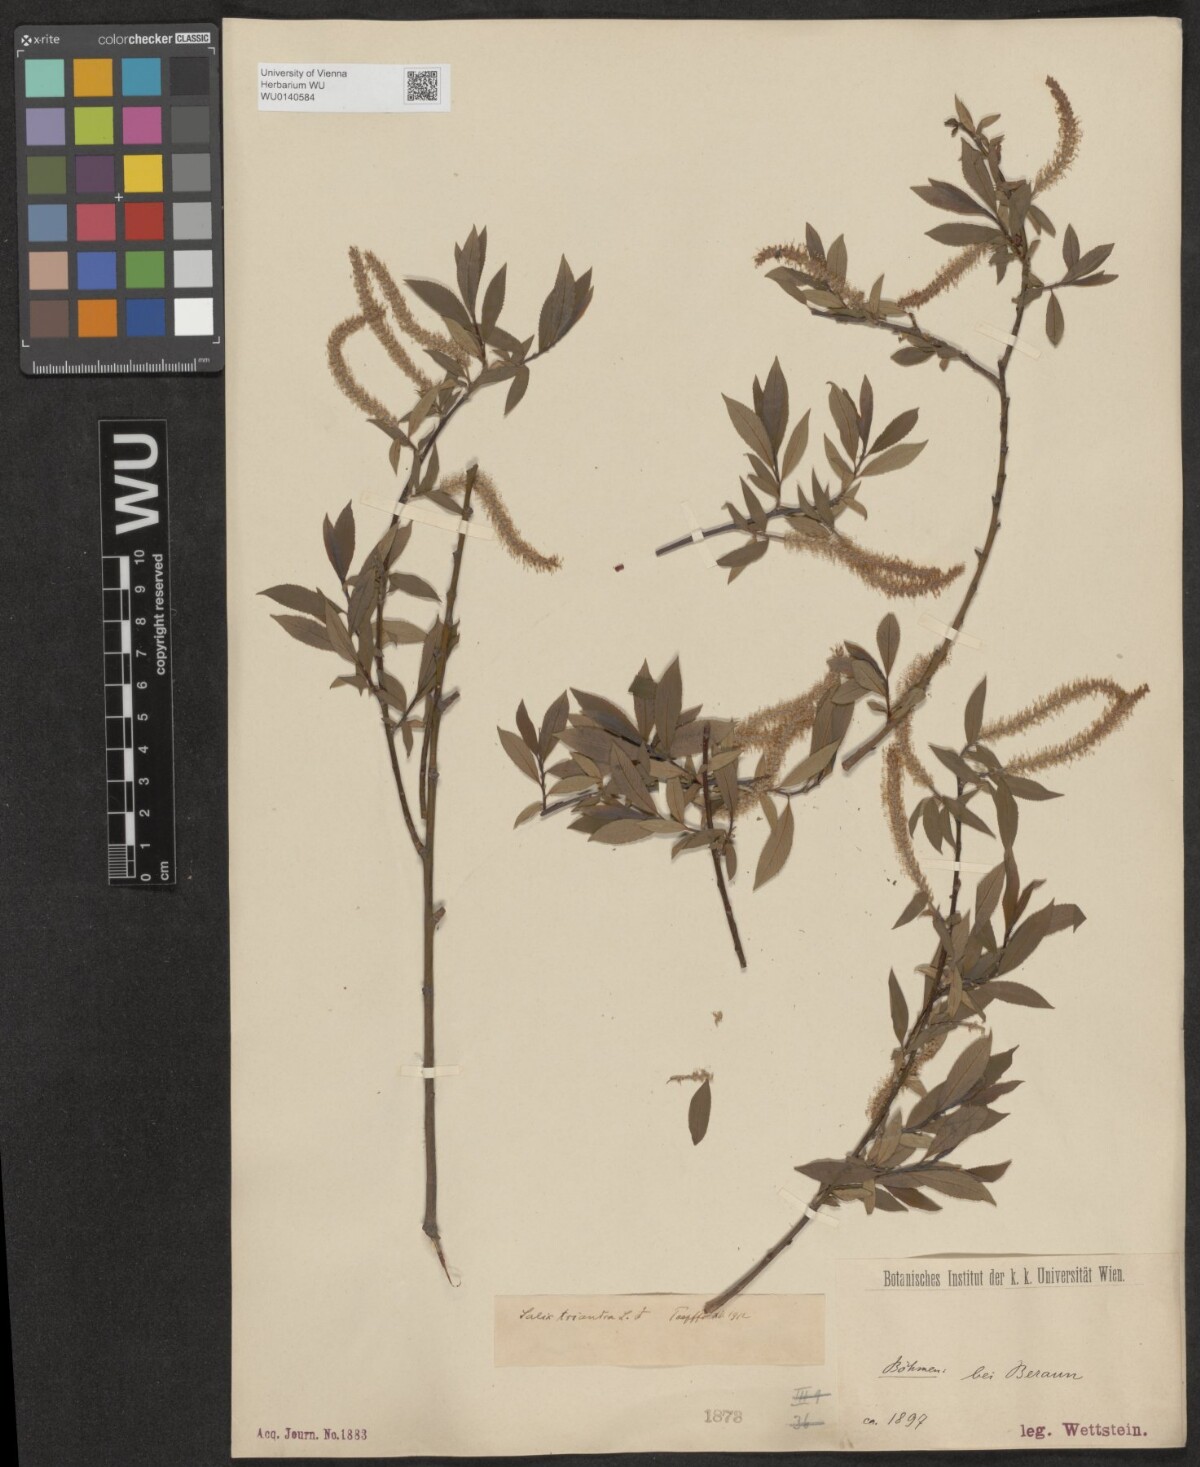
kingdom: Plantae
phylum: Tracheophyta
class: Magnoliopsida
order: Malpighiales
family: Salicaceae
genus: Salix
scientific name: Salix triandra
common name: Almond willow
